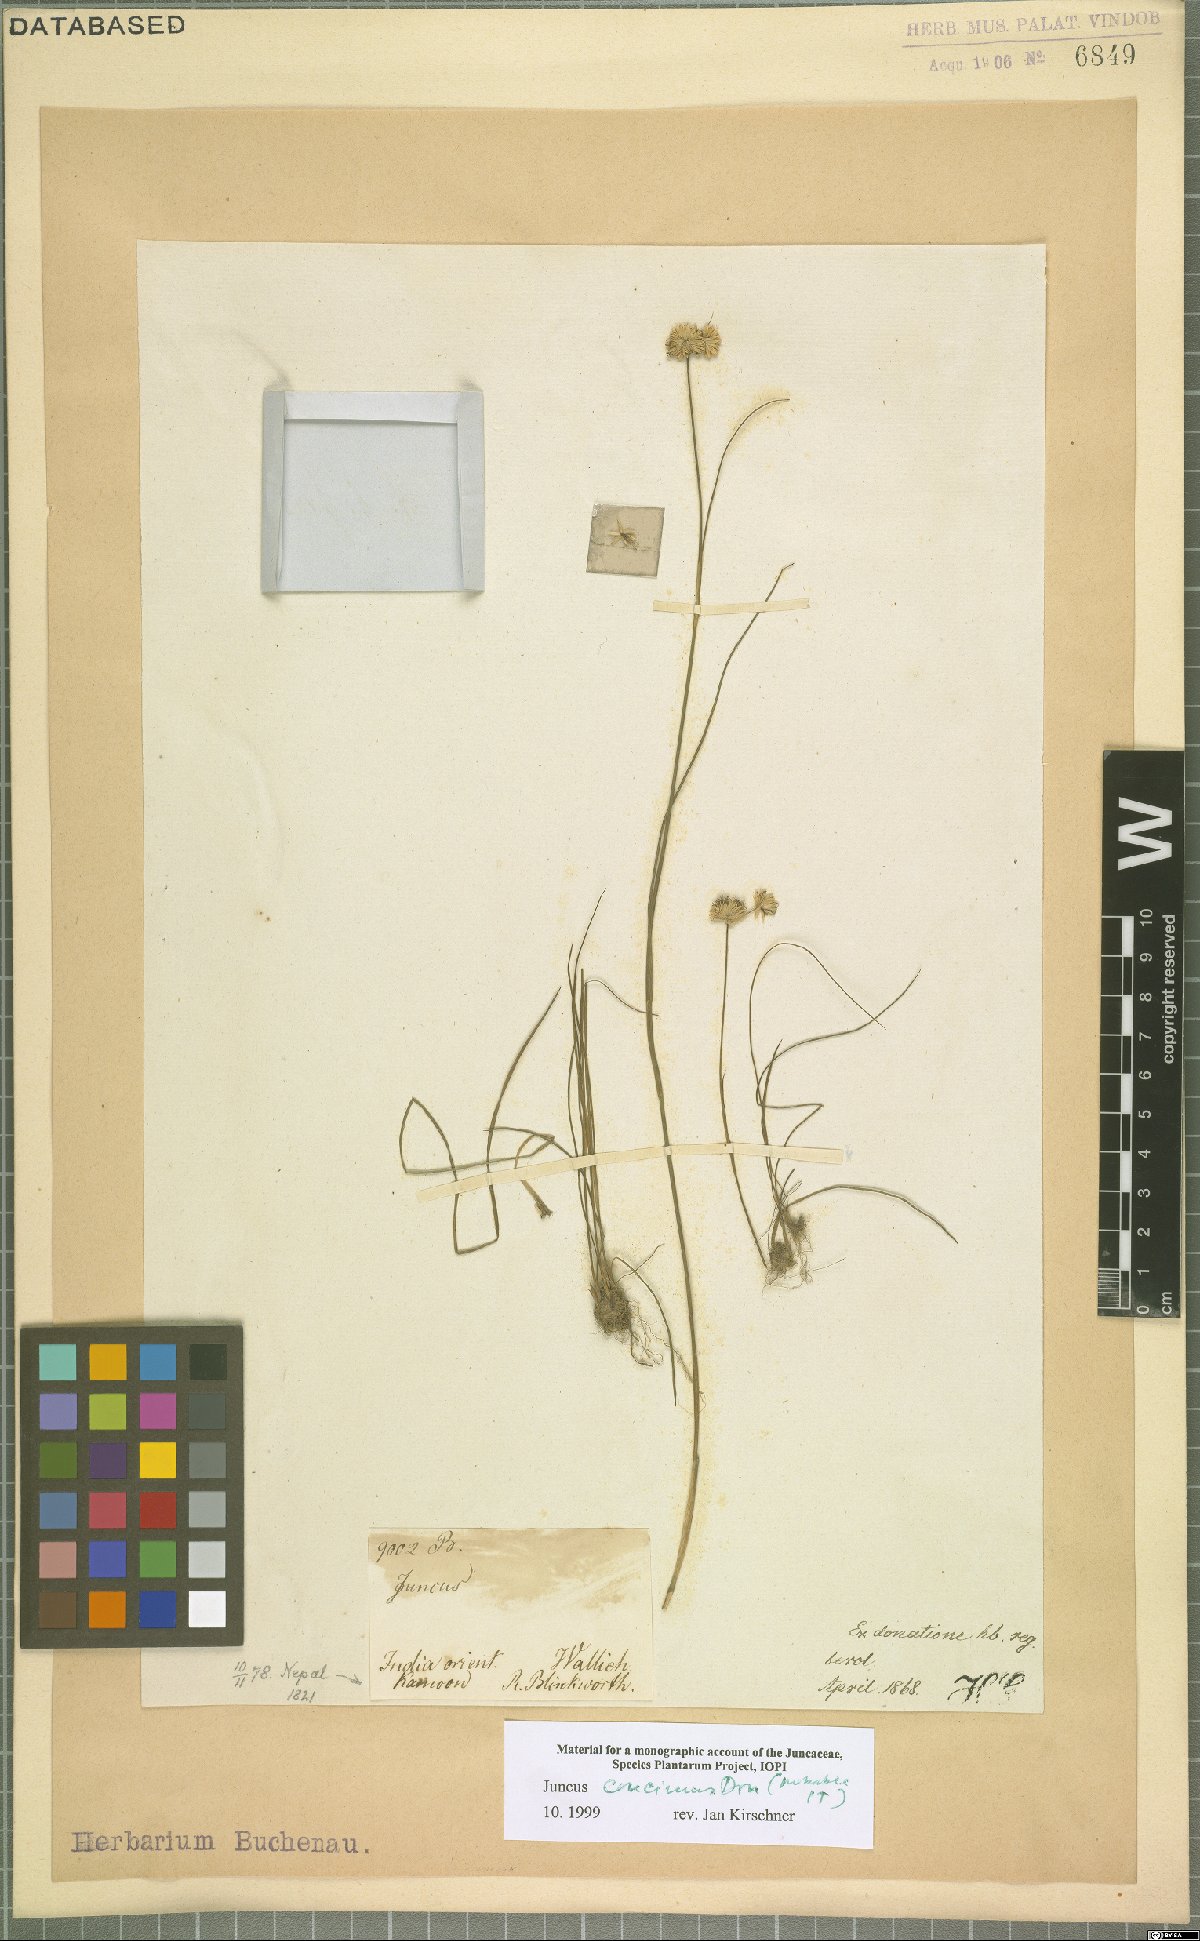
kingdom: Plantae
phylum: Tracheophyta
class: Liliopsida
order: Poales
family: Juncaceae
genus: Juncus
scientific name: Juncus concinnus
